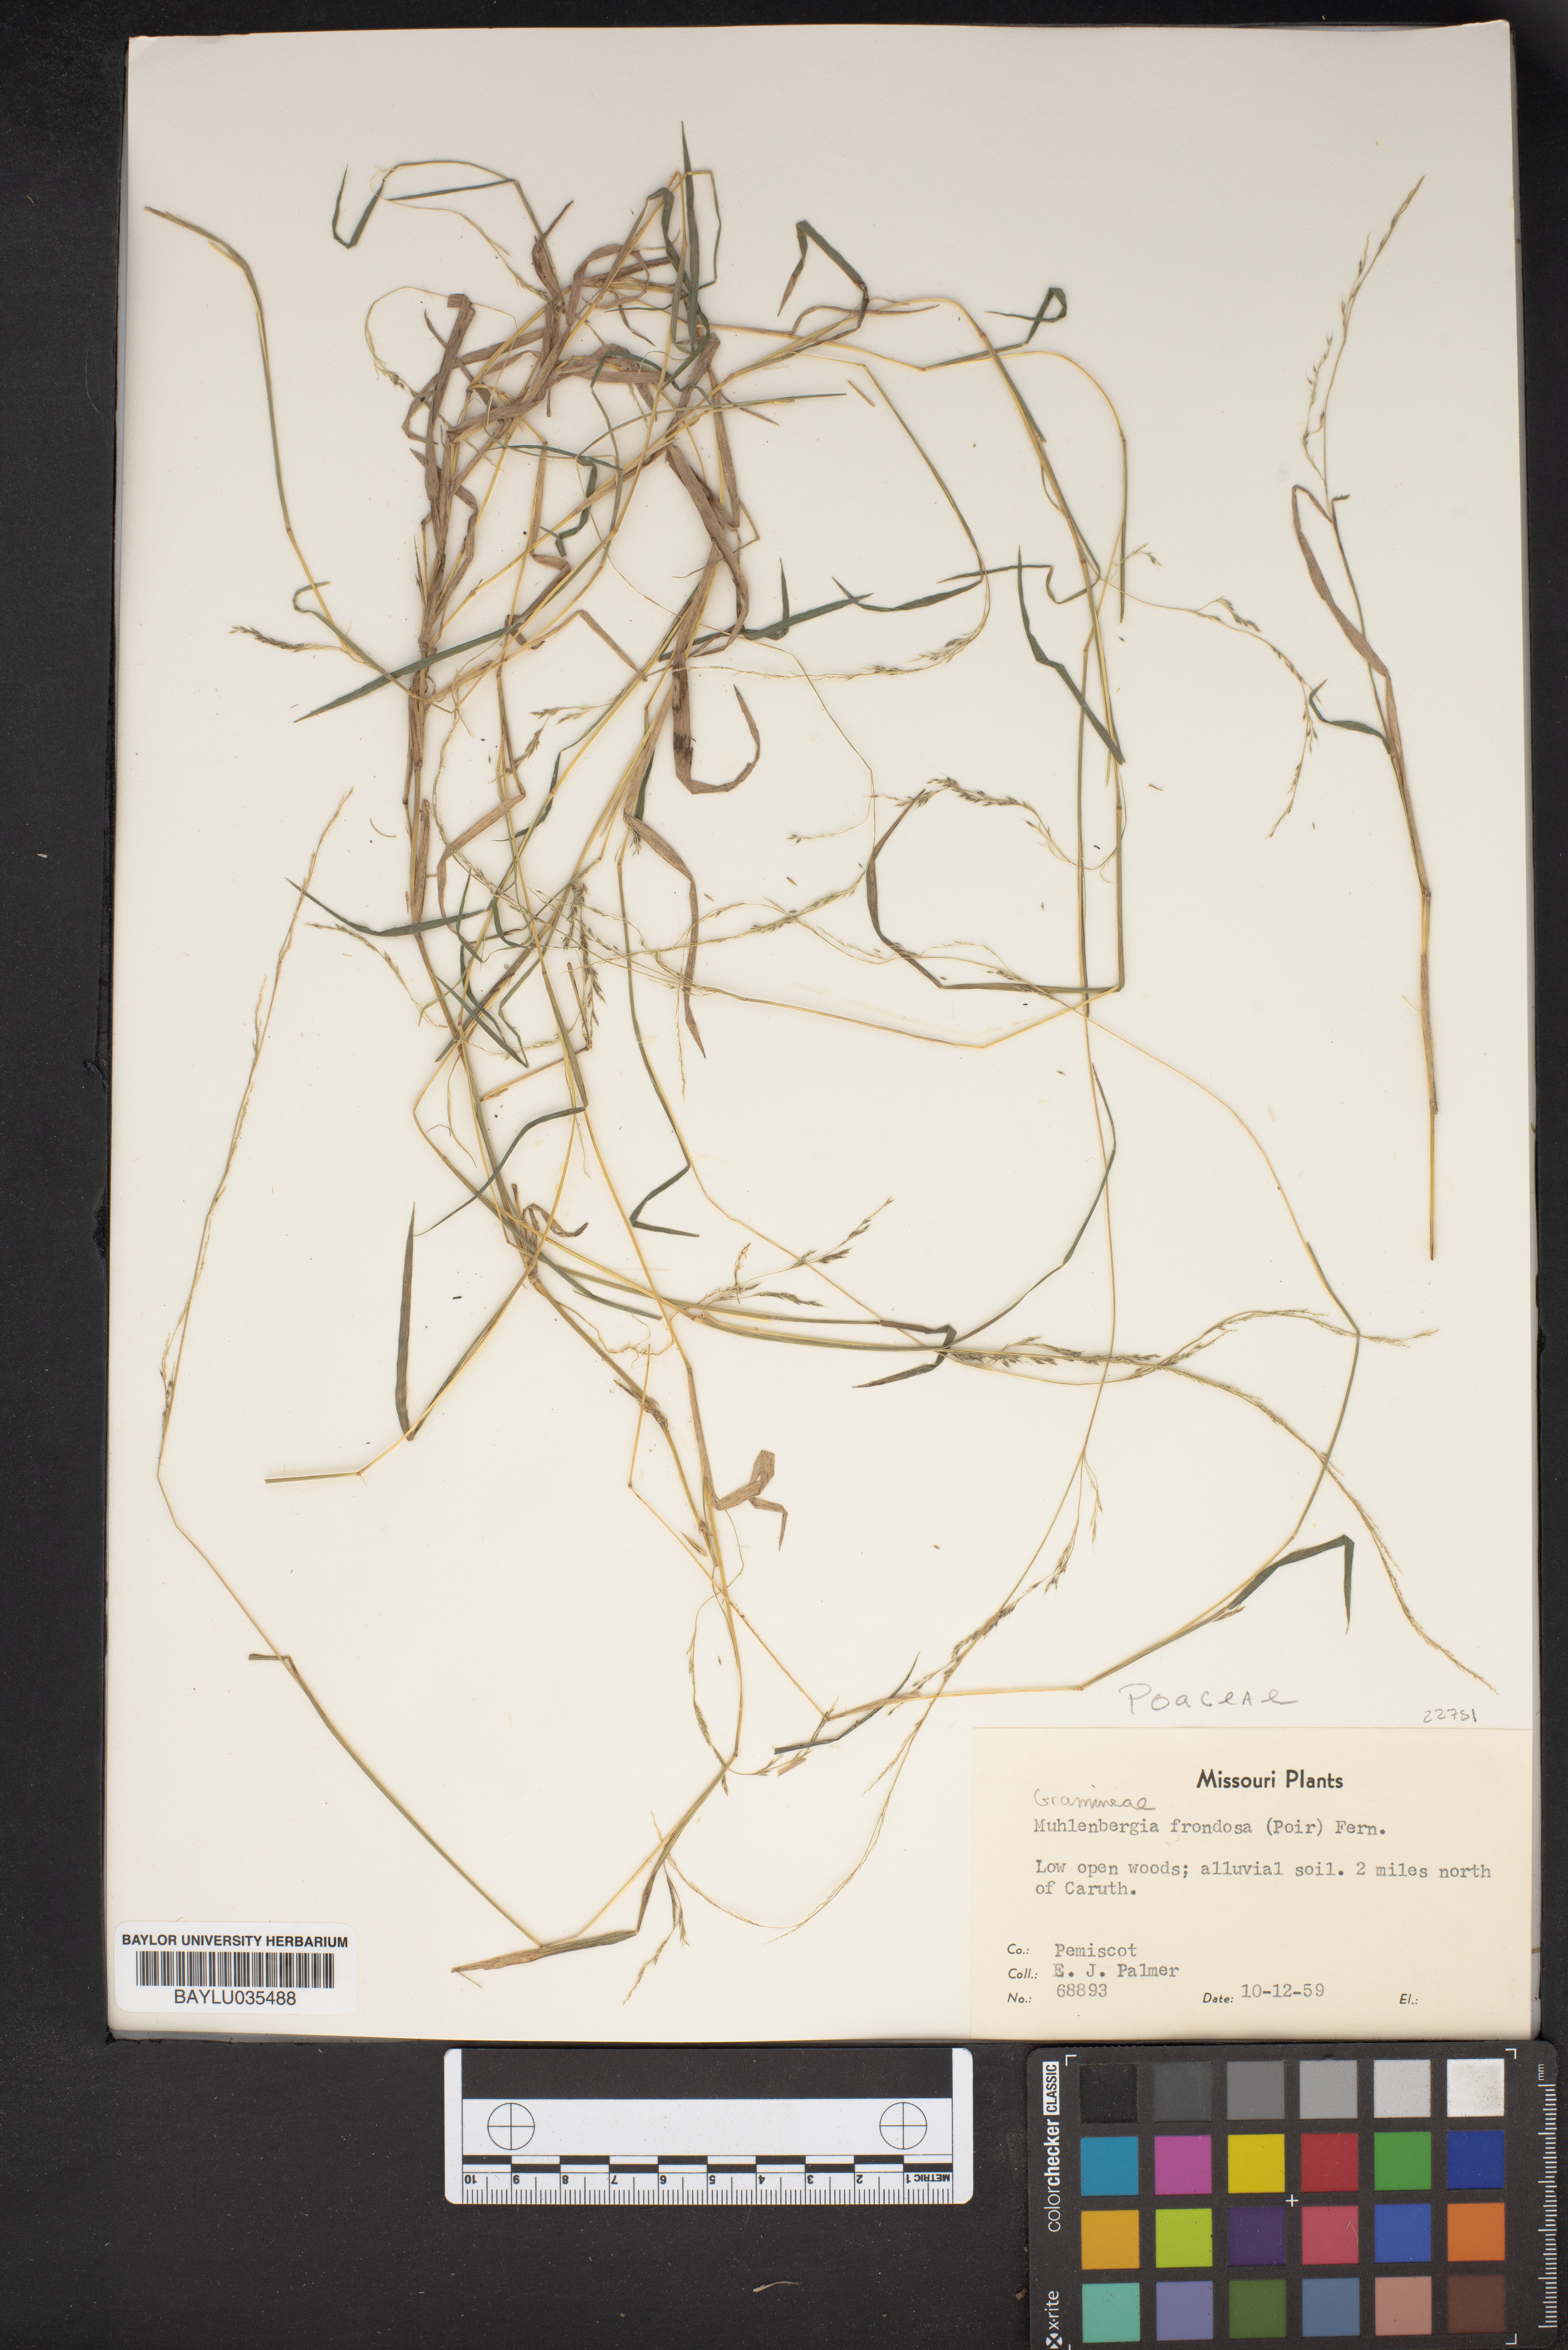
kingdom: Plantae
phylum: Tracheophyta
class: Liliopsida
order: Poales
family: Poaceae
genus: Muhlenbergia
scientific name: Muhlenbergia frondosa
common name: Common satingrass
